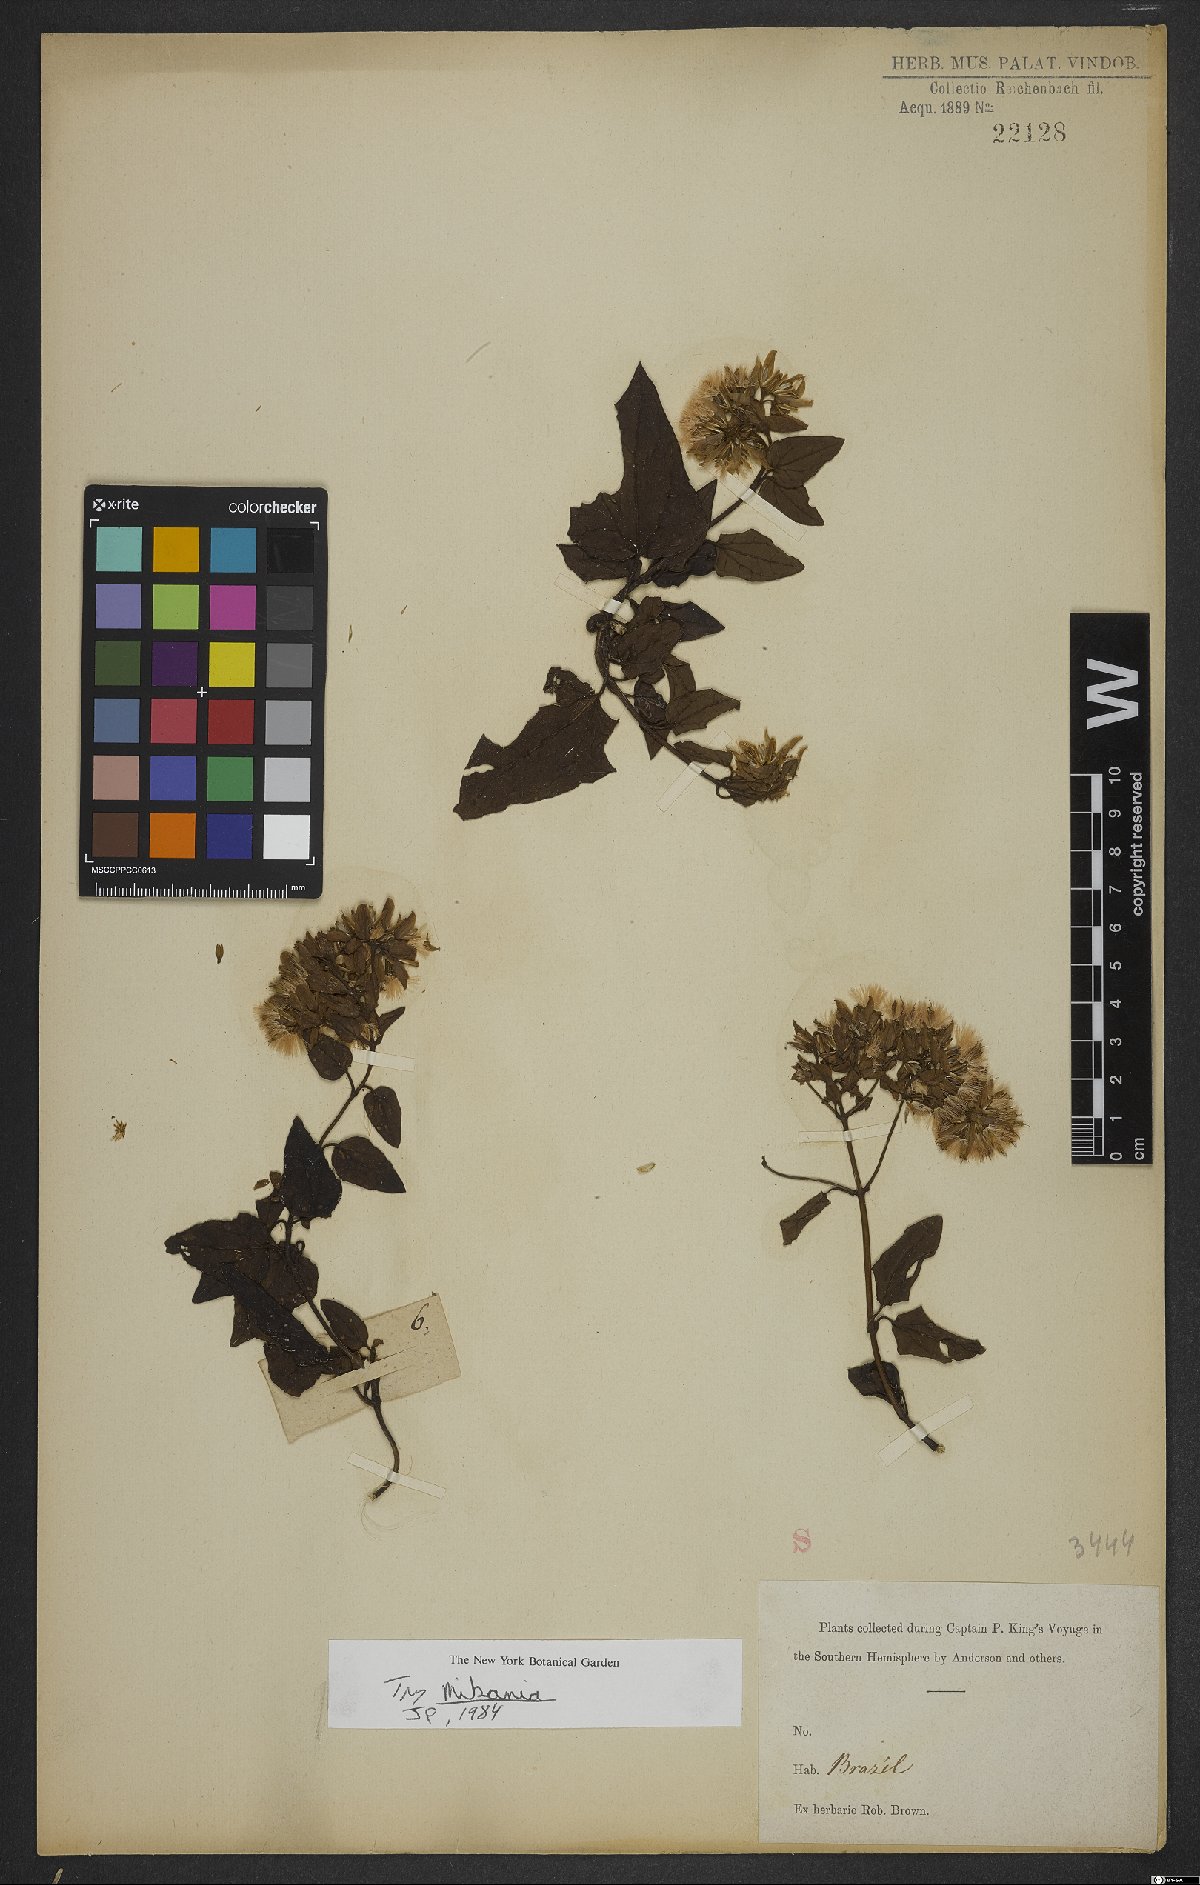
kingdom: Plantae
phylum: Tracheophyta
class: Magnoliopsida
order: Asterales
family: Asteraceae
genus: Mikania
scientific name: Mikania
